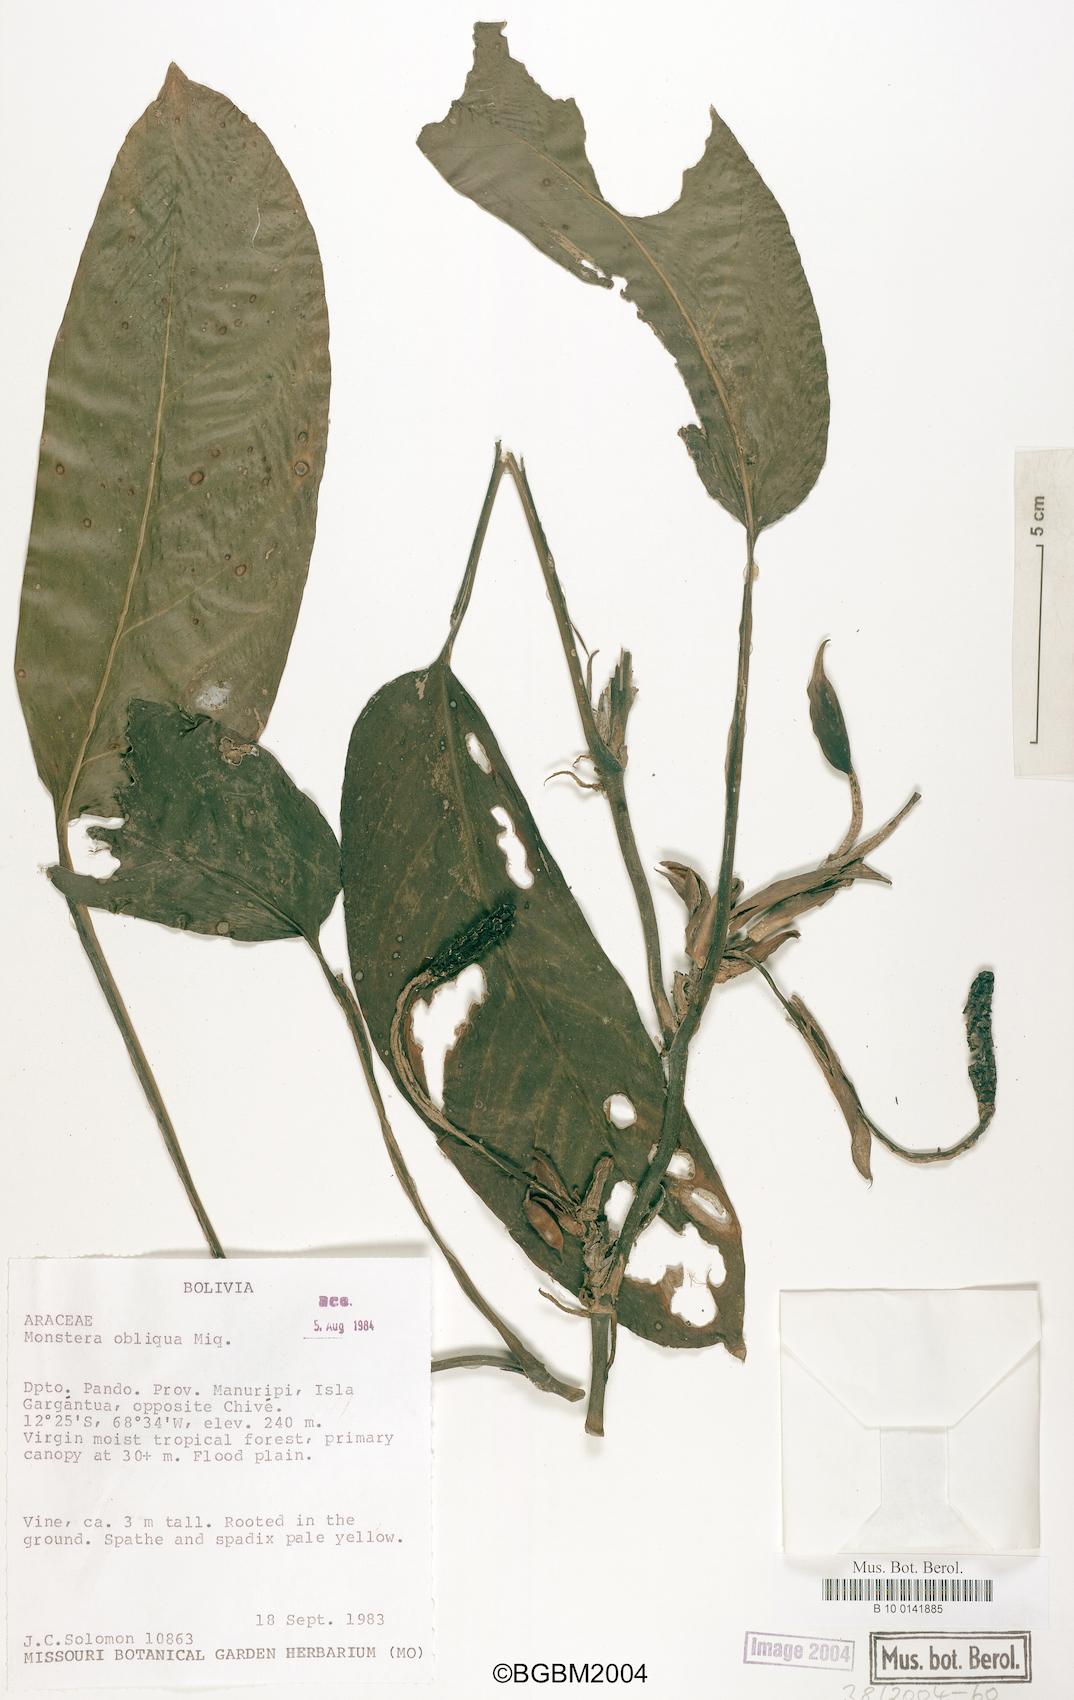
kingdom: Plantae
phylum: Tracheophyta
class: Liliopsida
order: Alismatales
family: Araceae
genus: Monstera
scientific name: Monstera obliqua
